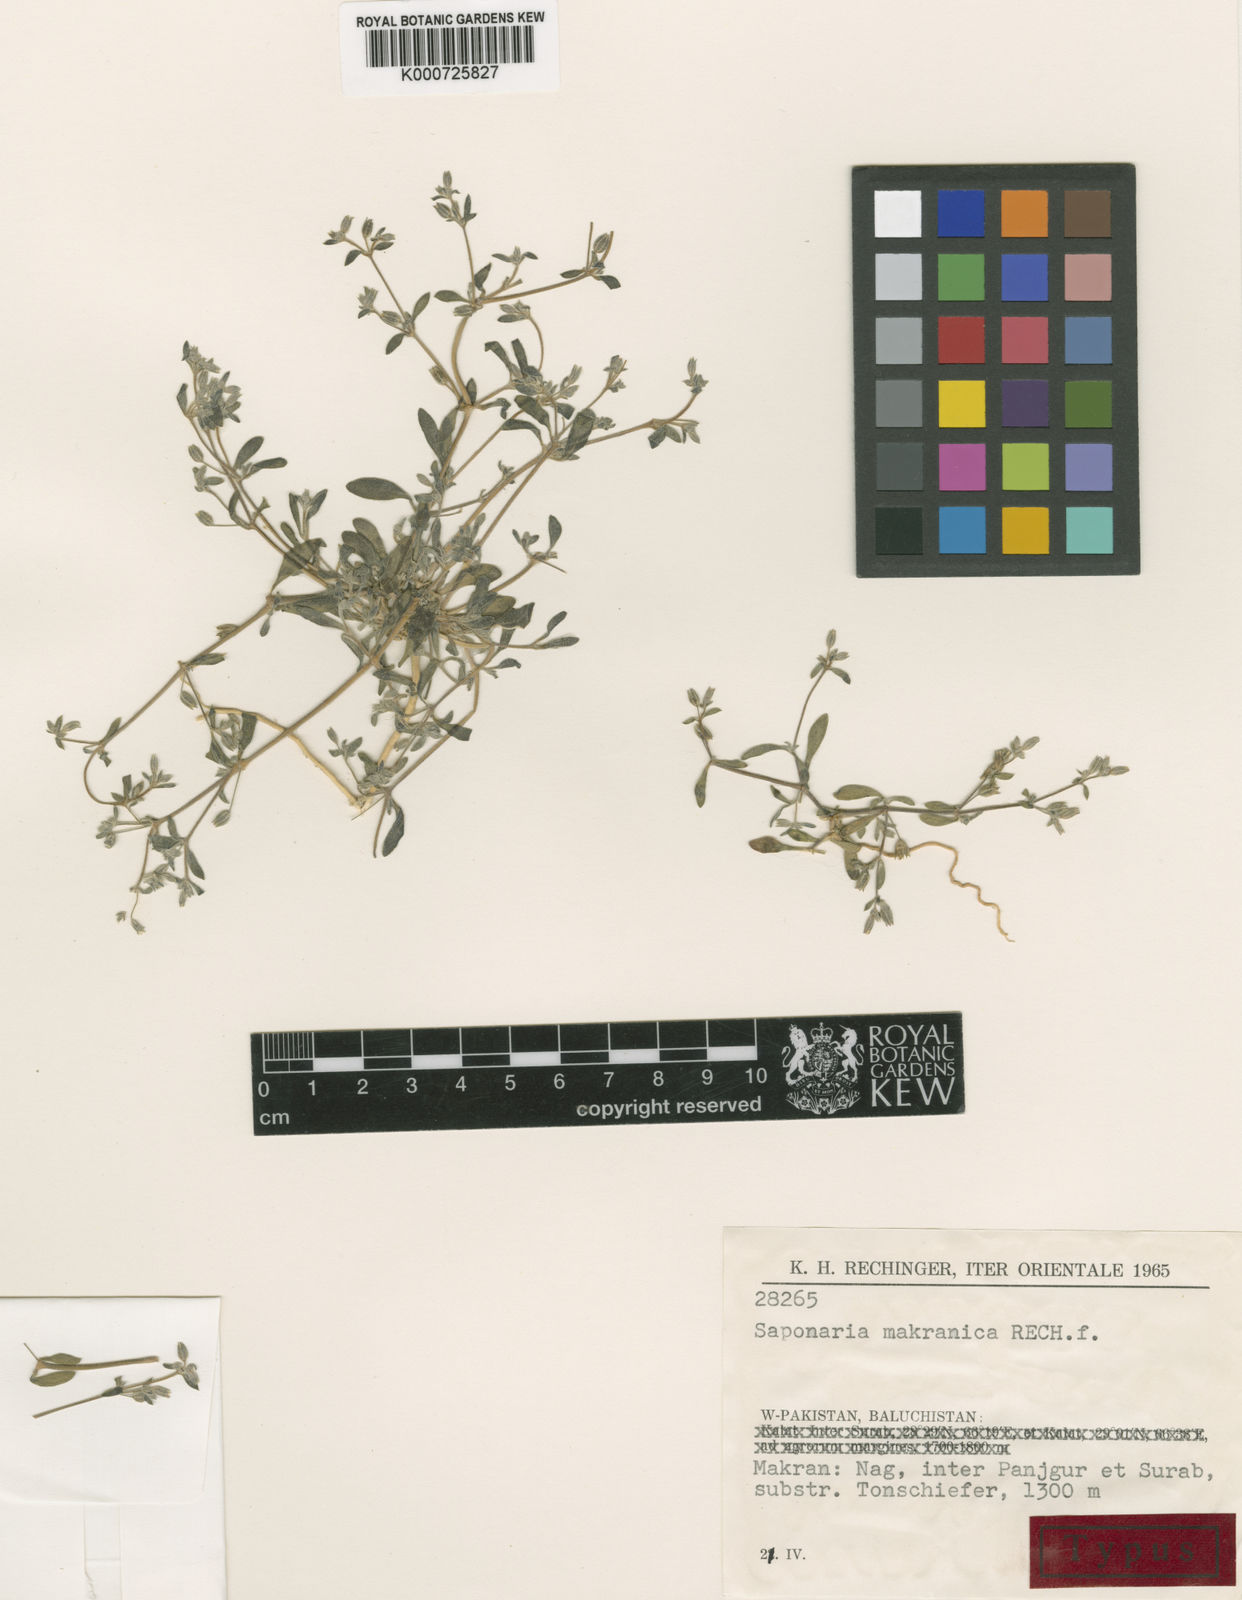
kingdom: Plantae
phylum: Tracheophyta
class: Magnoliopsida
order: Caryophyllales
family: Caryophyllaceae
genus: Acanthophyllum
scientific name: Acanthophyllum makranicum
